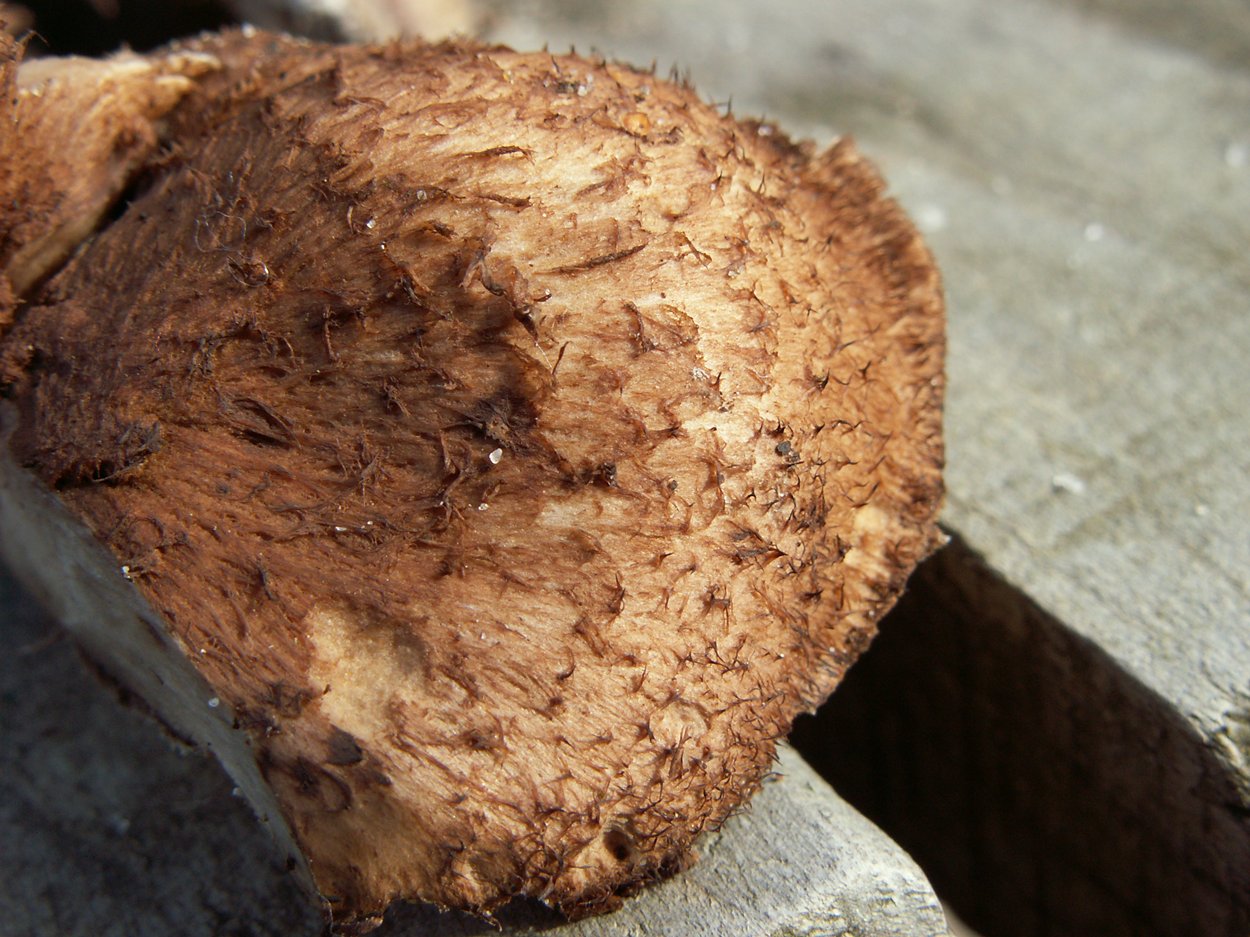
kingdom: Fungi
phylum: Basidiomycota
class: Agaricomycetes
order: Thelephorales
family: Bankeraceae
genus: Hydnellum
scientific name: Hydnellum lepidum
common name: skrænt-korkpigsvamp
